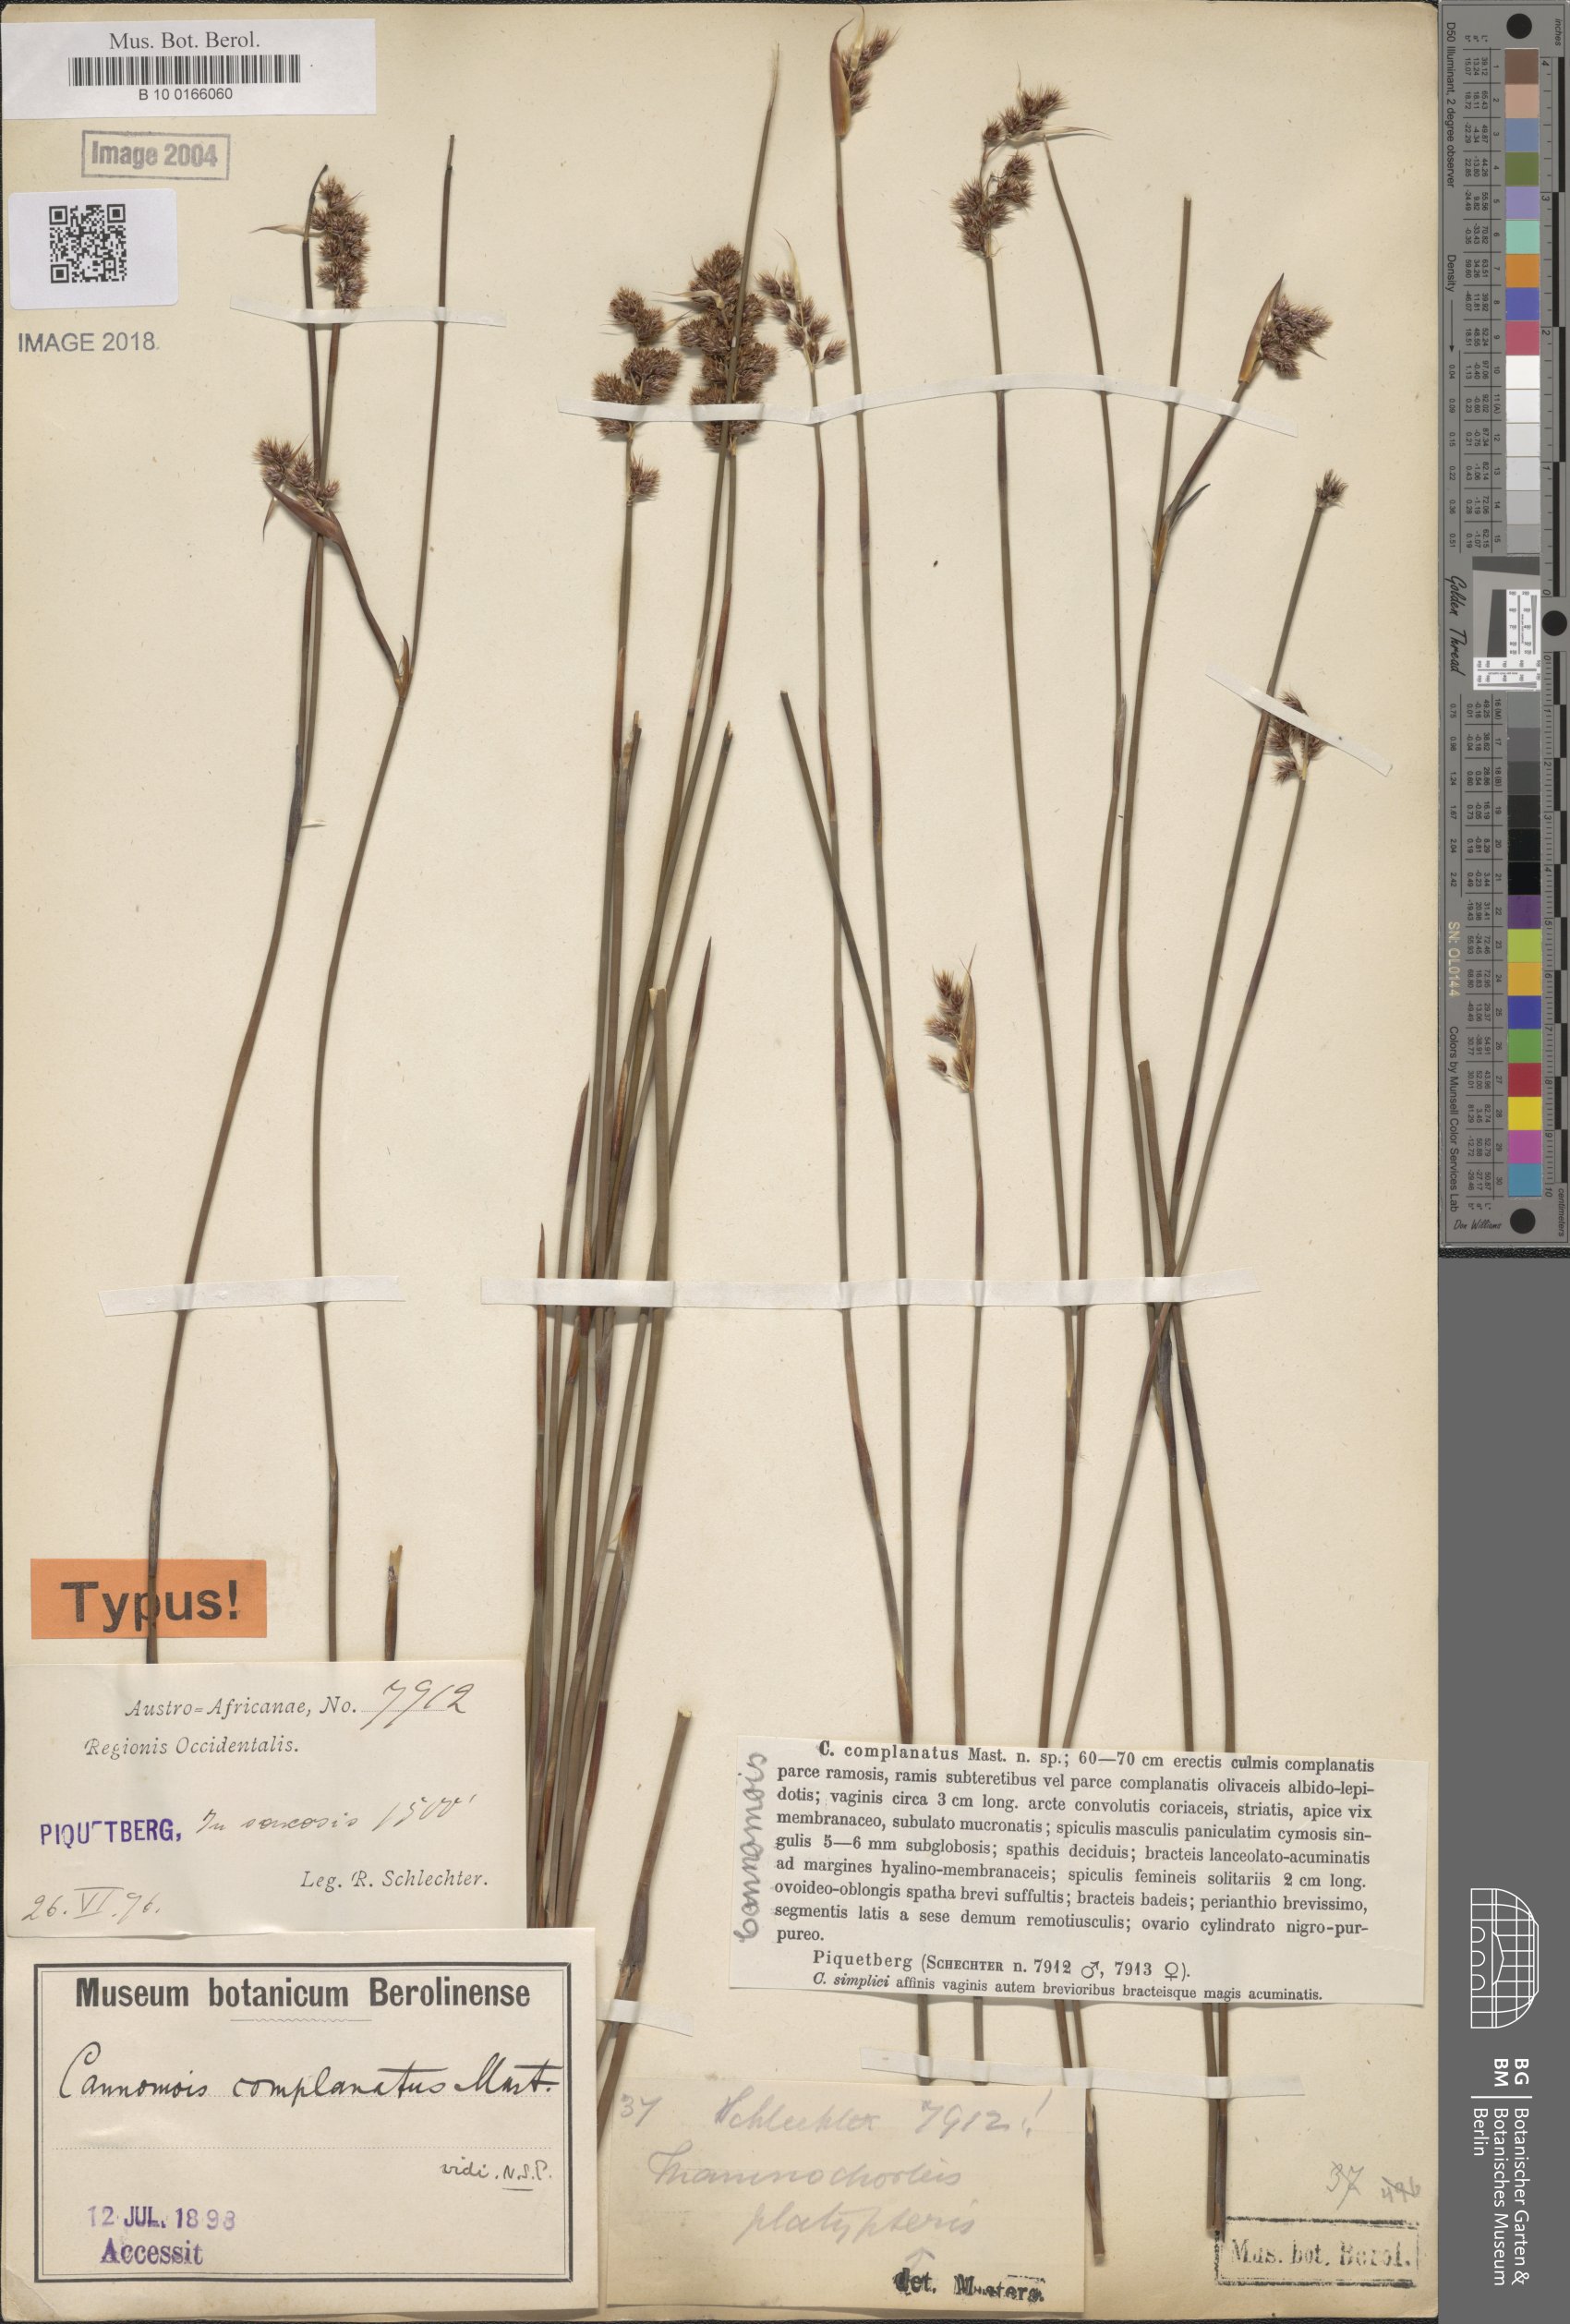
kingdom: Plantae
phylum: Tracheophyta
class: Liliopsida
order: Poales
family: Restionaceae
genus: Cannomois
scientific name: Cannomois parviflora
